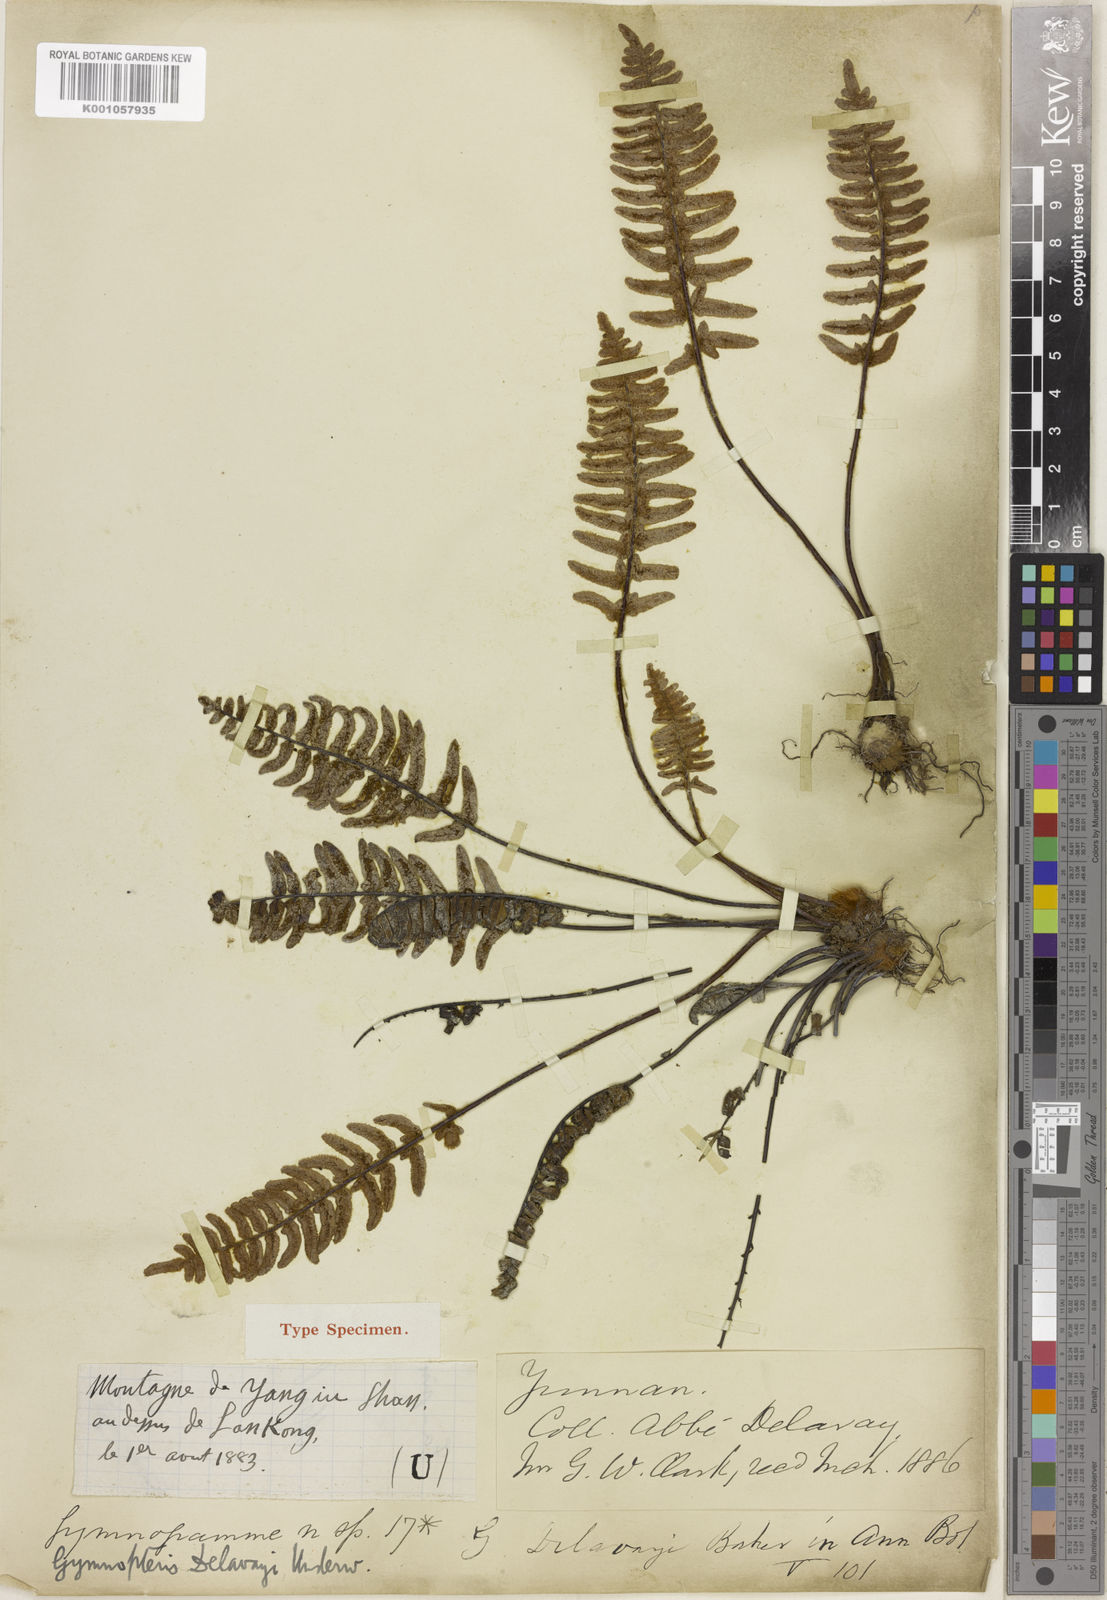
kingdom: Plantae
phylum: Tracheophyta
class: Polypodiopsida
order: Polypodiales
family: Pteridaceae
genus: Paragymnopteris
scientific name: Paragymnopteris delavayi
